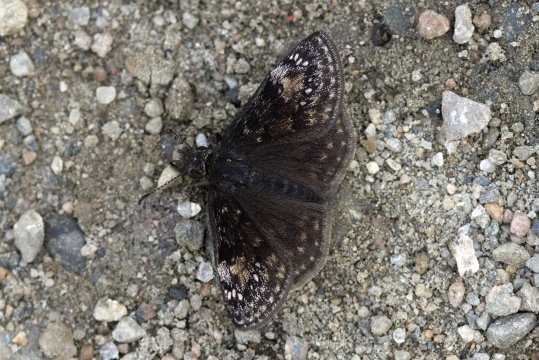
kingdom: Animalia
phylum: Arthropoda
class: Insecta
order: Lepidoptera
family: Hesperiidae
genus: Gesta
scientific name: Gesta
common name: Columbine Duskywing
